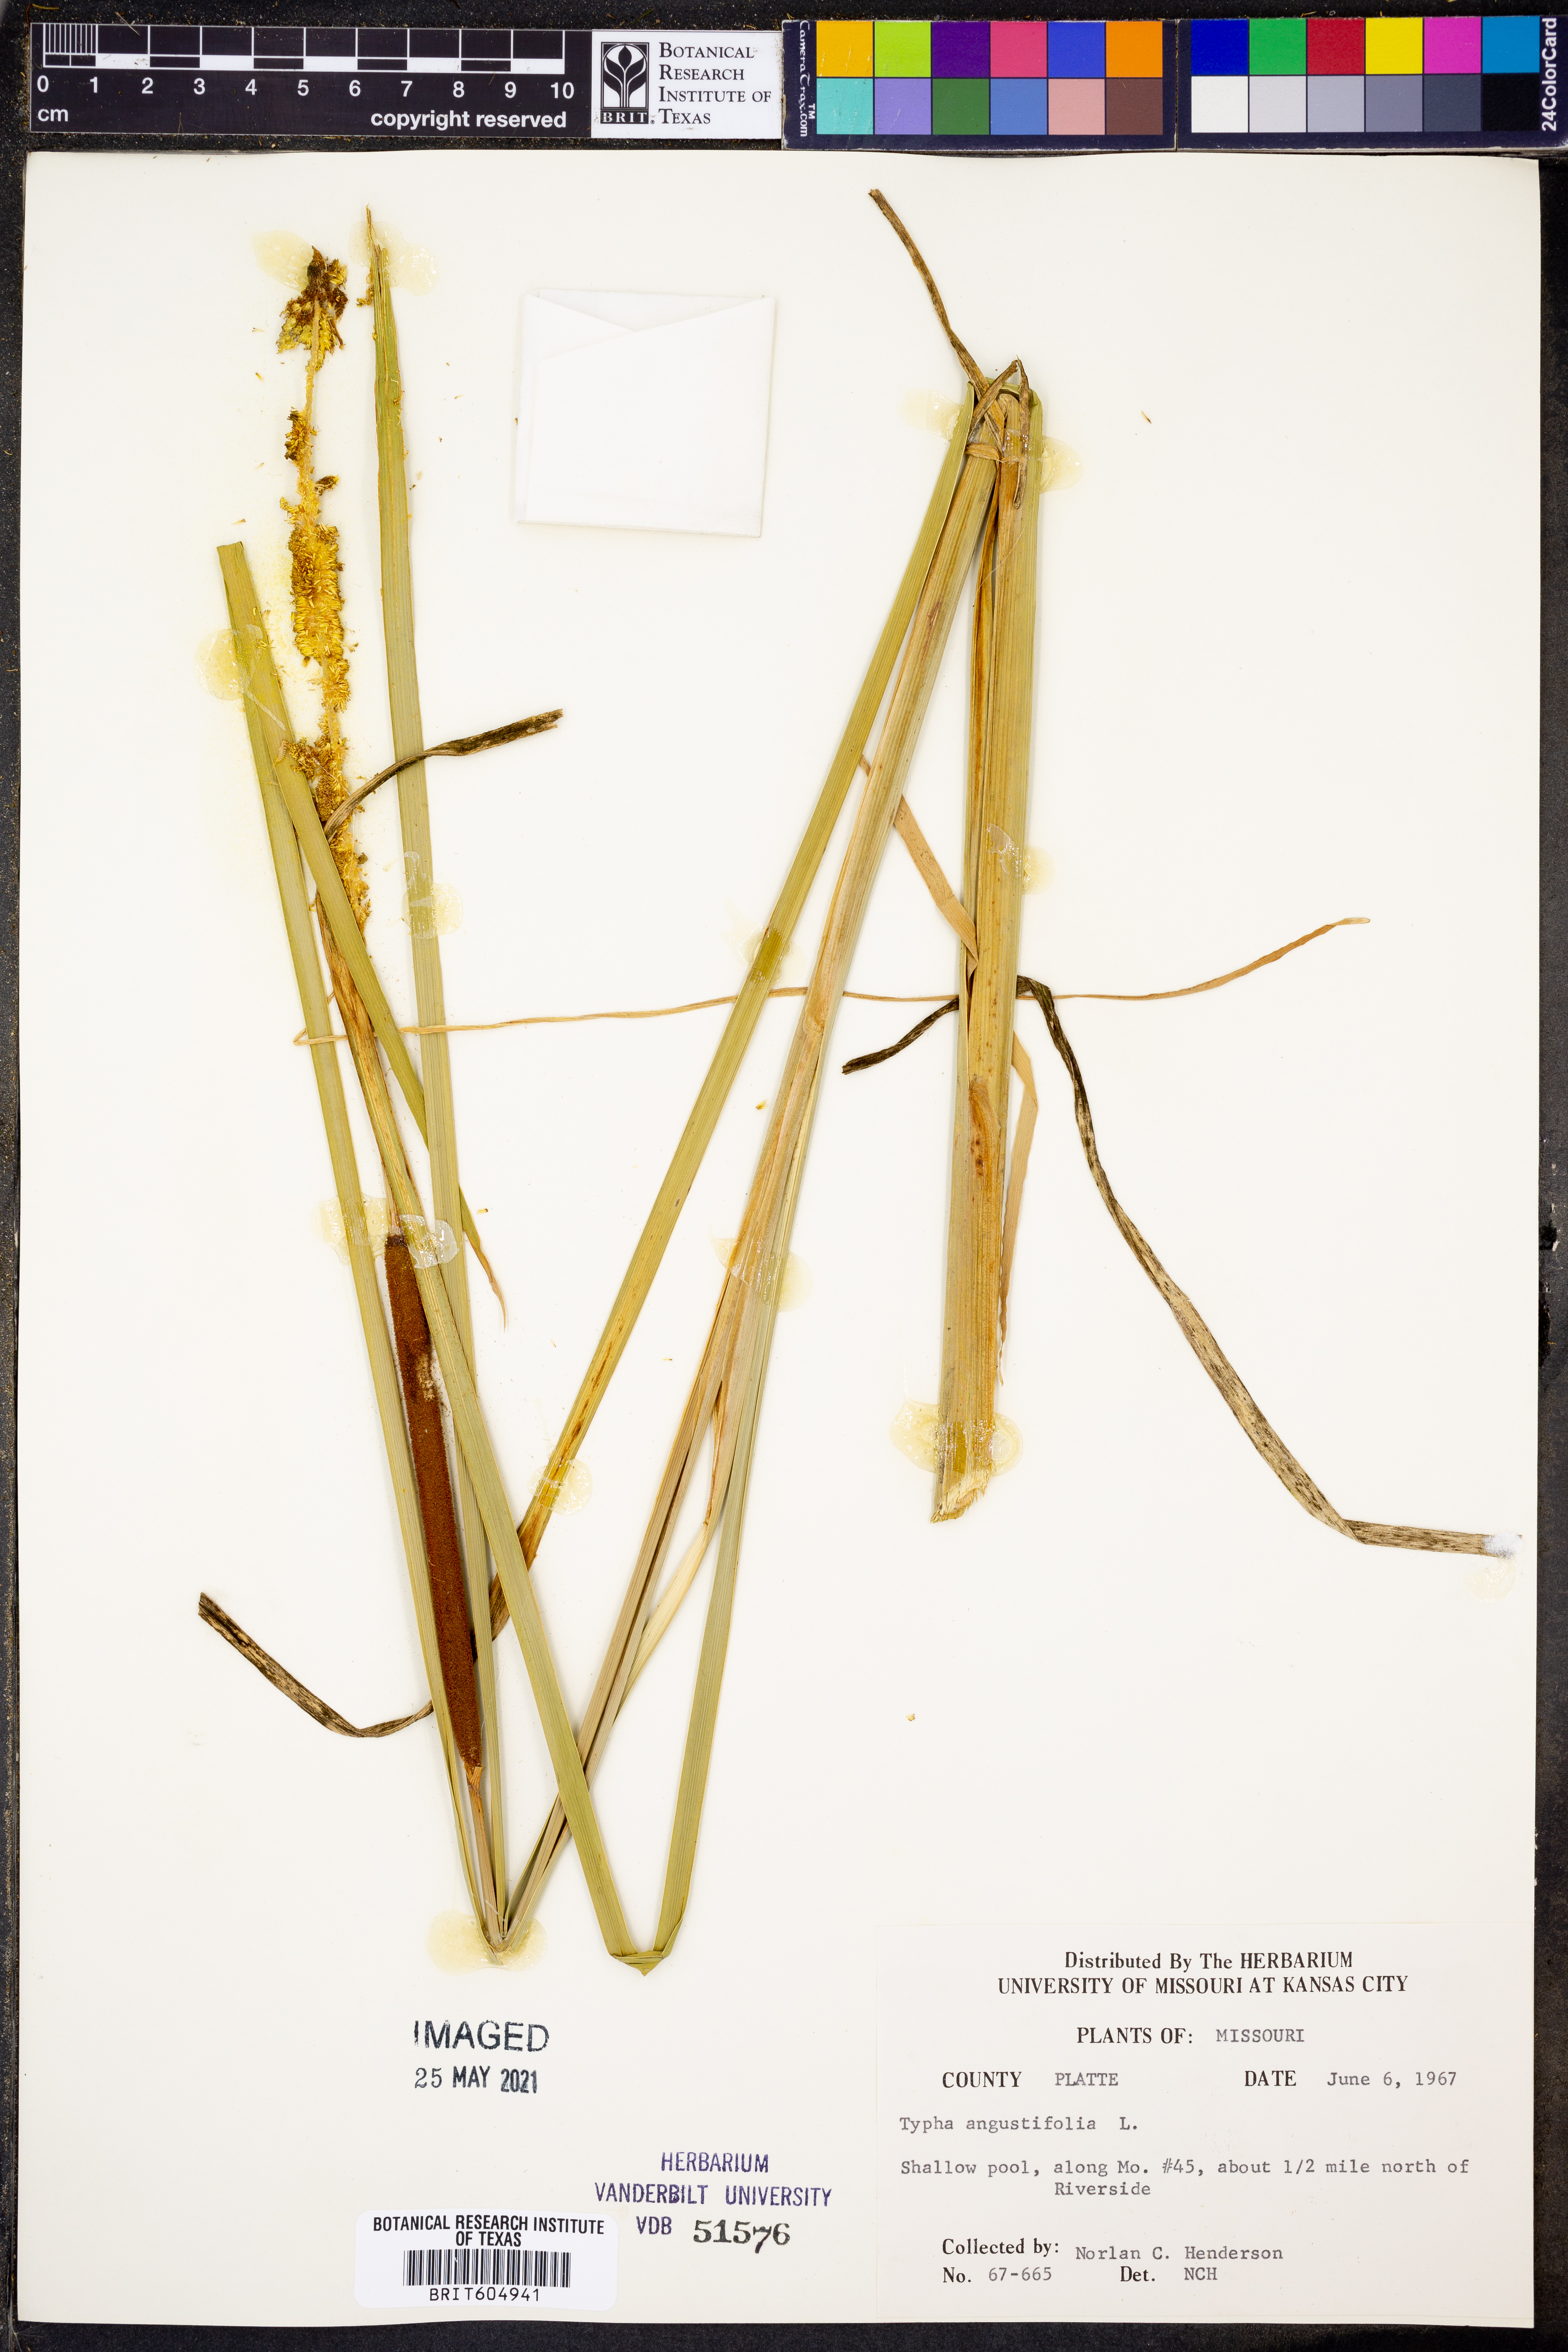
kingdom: Plantae
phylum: Tracheophyta
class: Liliopsida
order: Poales
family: Typhaceae
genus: Typha
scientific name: Typha angustifolia
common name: Lesser bulrush
